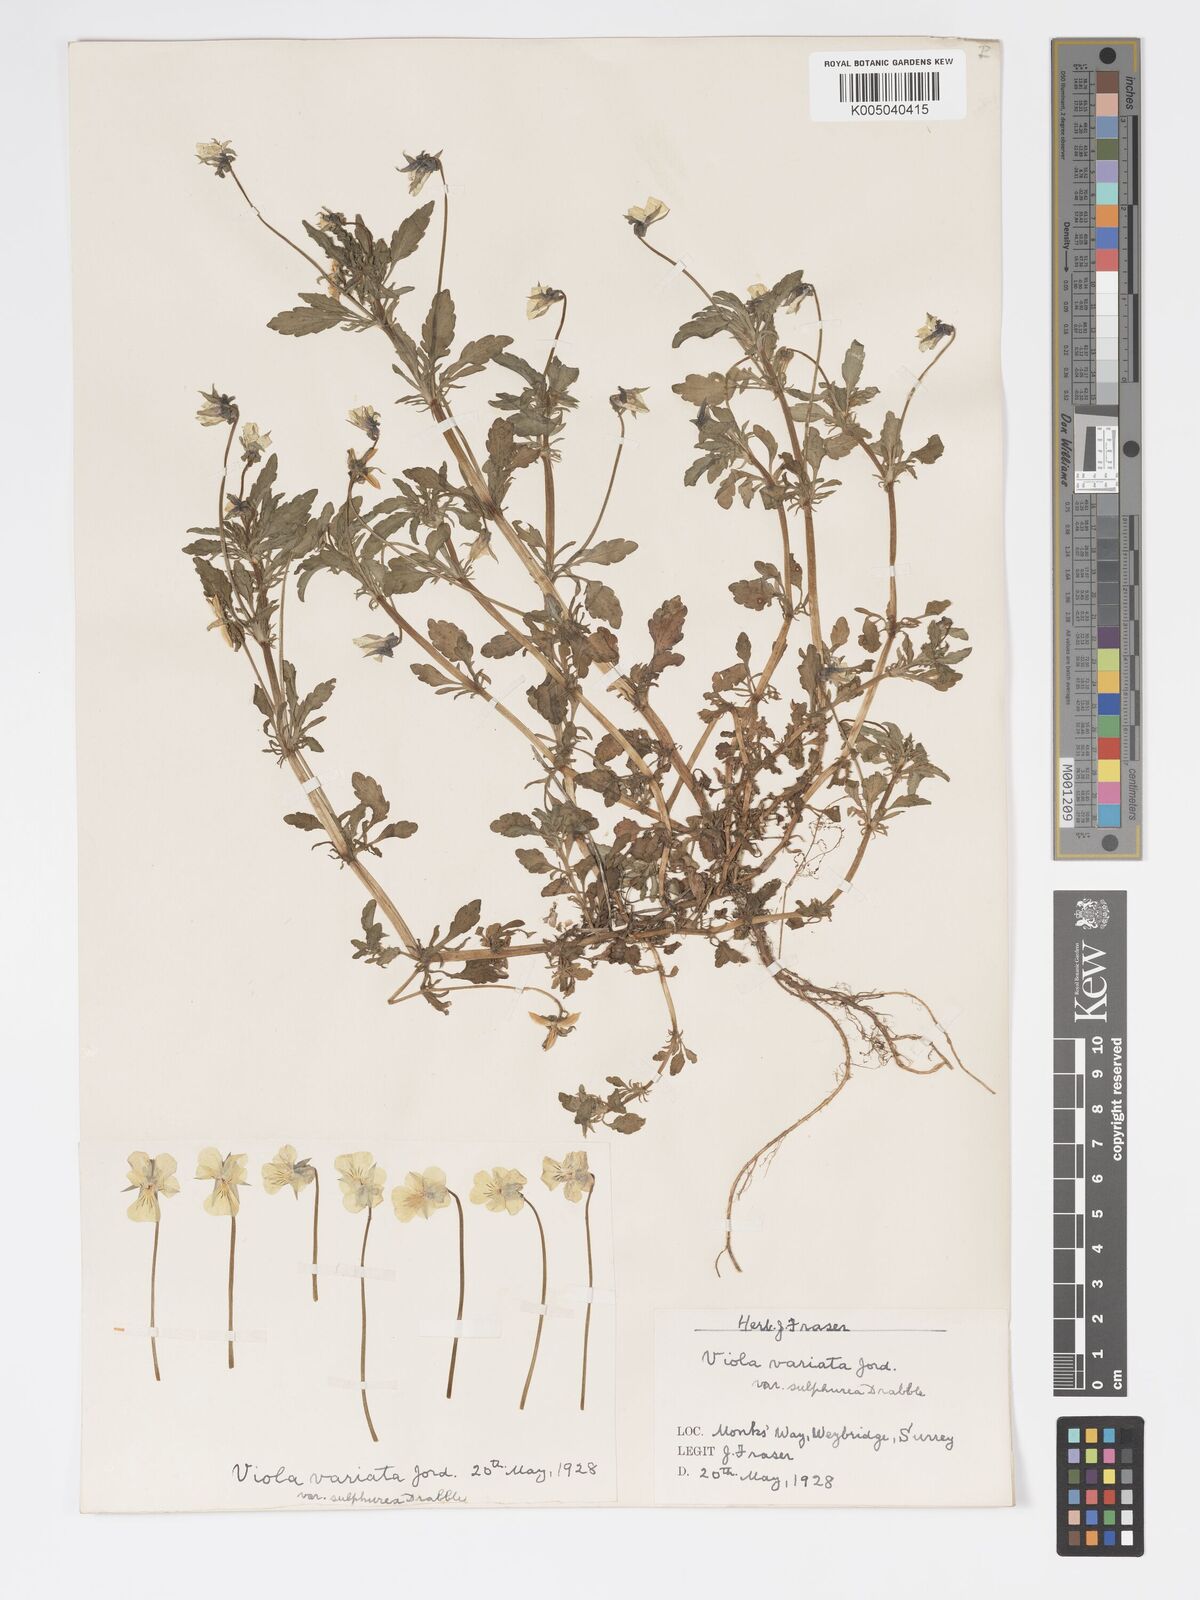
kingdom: Plantae
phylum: Tracheophyta
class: Magnoliopsida
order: Malpighiales
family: Violaceae
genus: Viola
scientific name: Viola arvensis
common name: Field pansy
